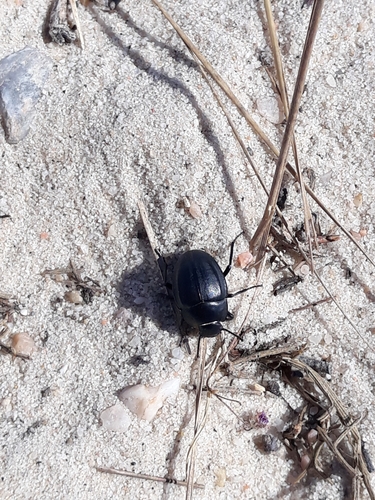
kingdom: Animalia
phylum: Arthropoda
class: Insecta
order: Coleoptera
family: Tenebrionidae
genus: Erodius
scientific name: Erodius tibialis
